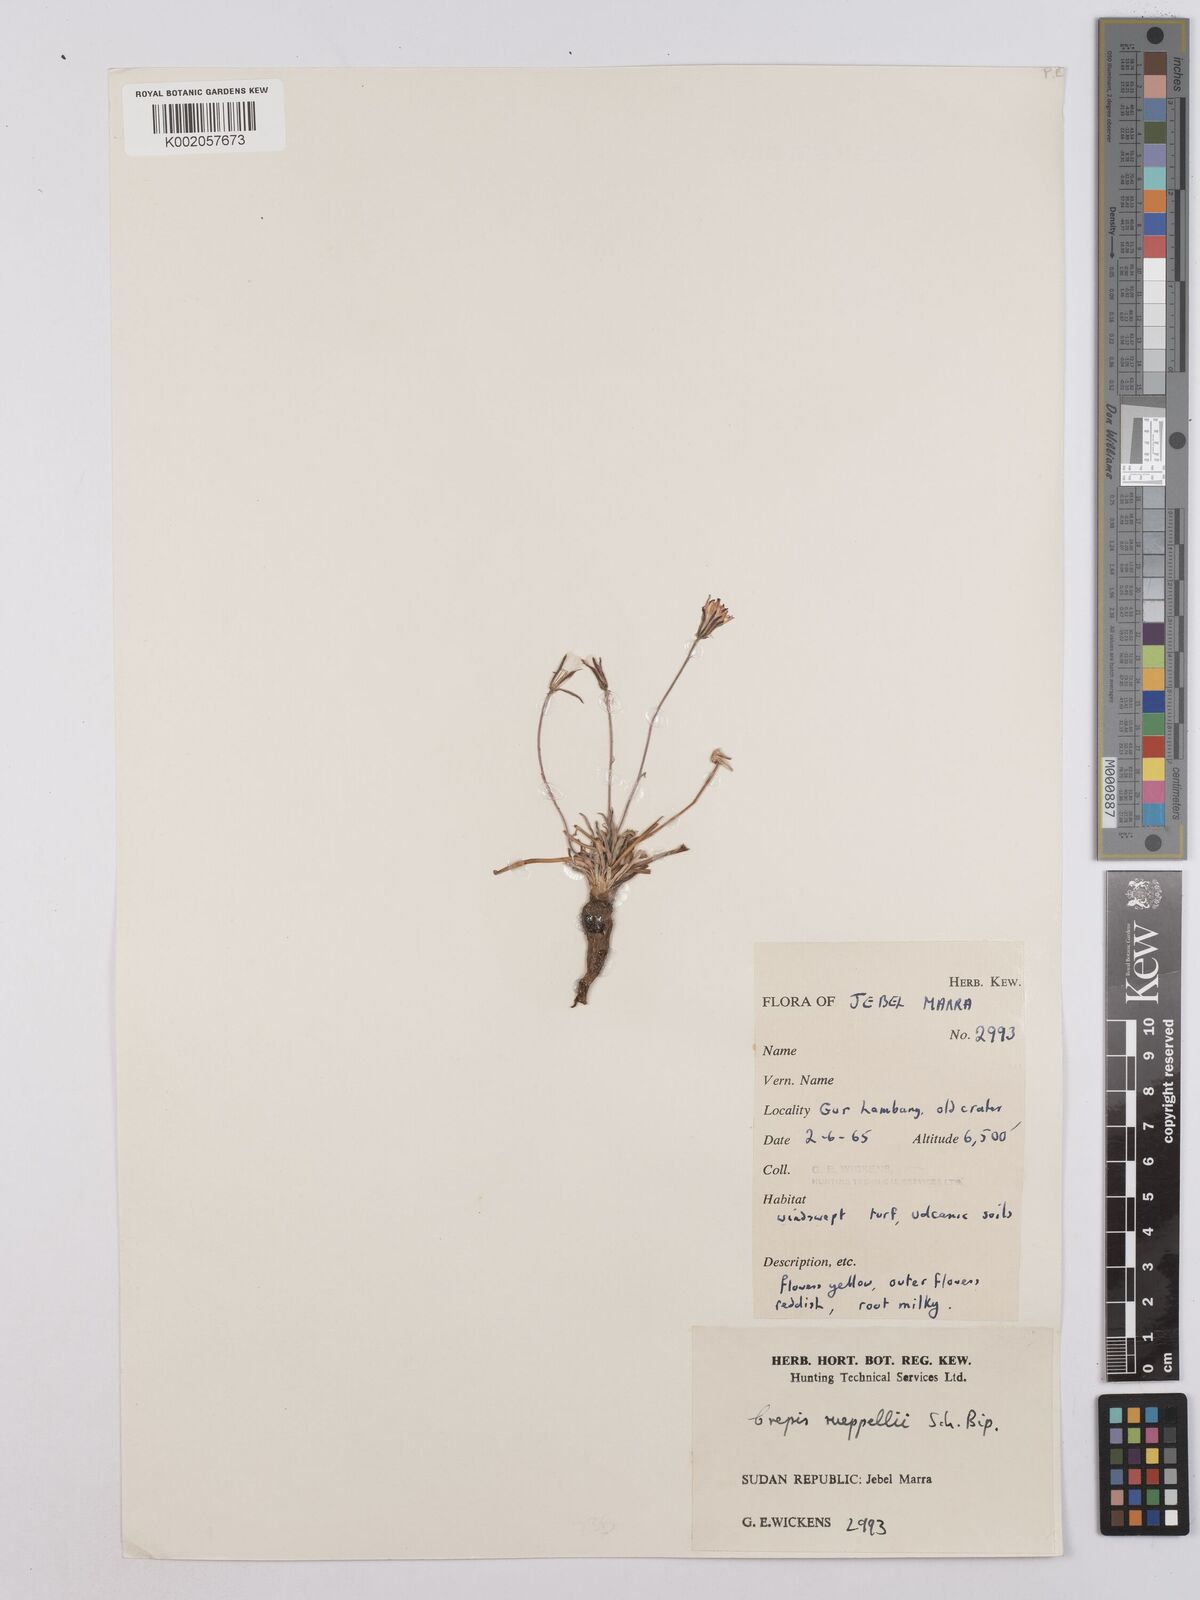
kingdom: Plantae
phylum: Tracheophyta
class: Magnoliopsida
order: Asterales
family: Asteraceae
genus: Crepis
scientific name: Crepis rueppellii
